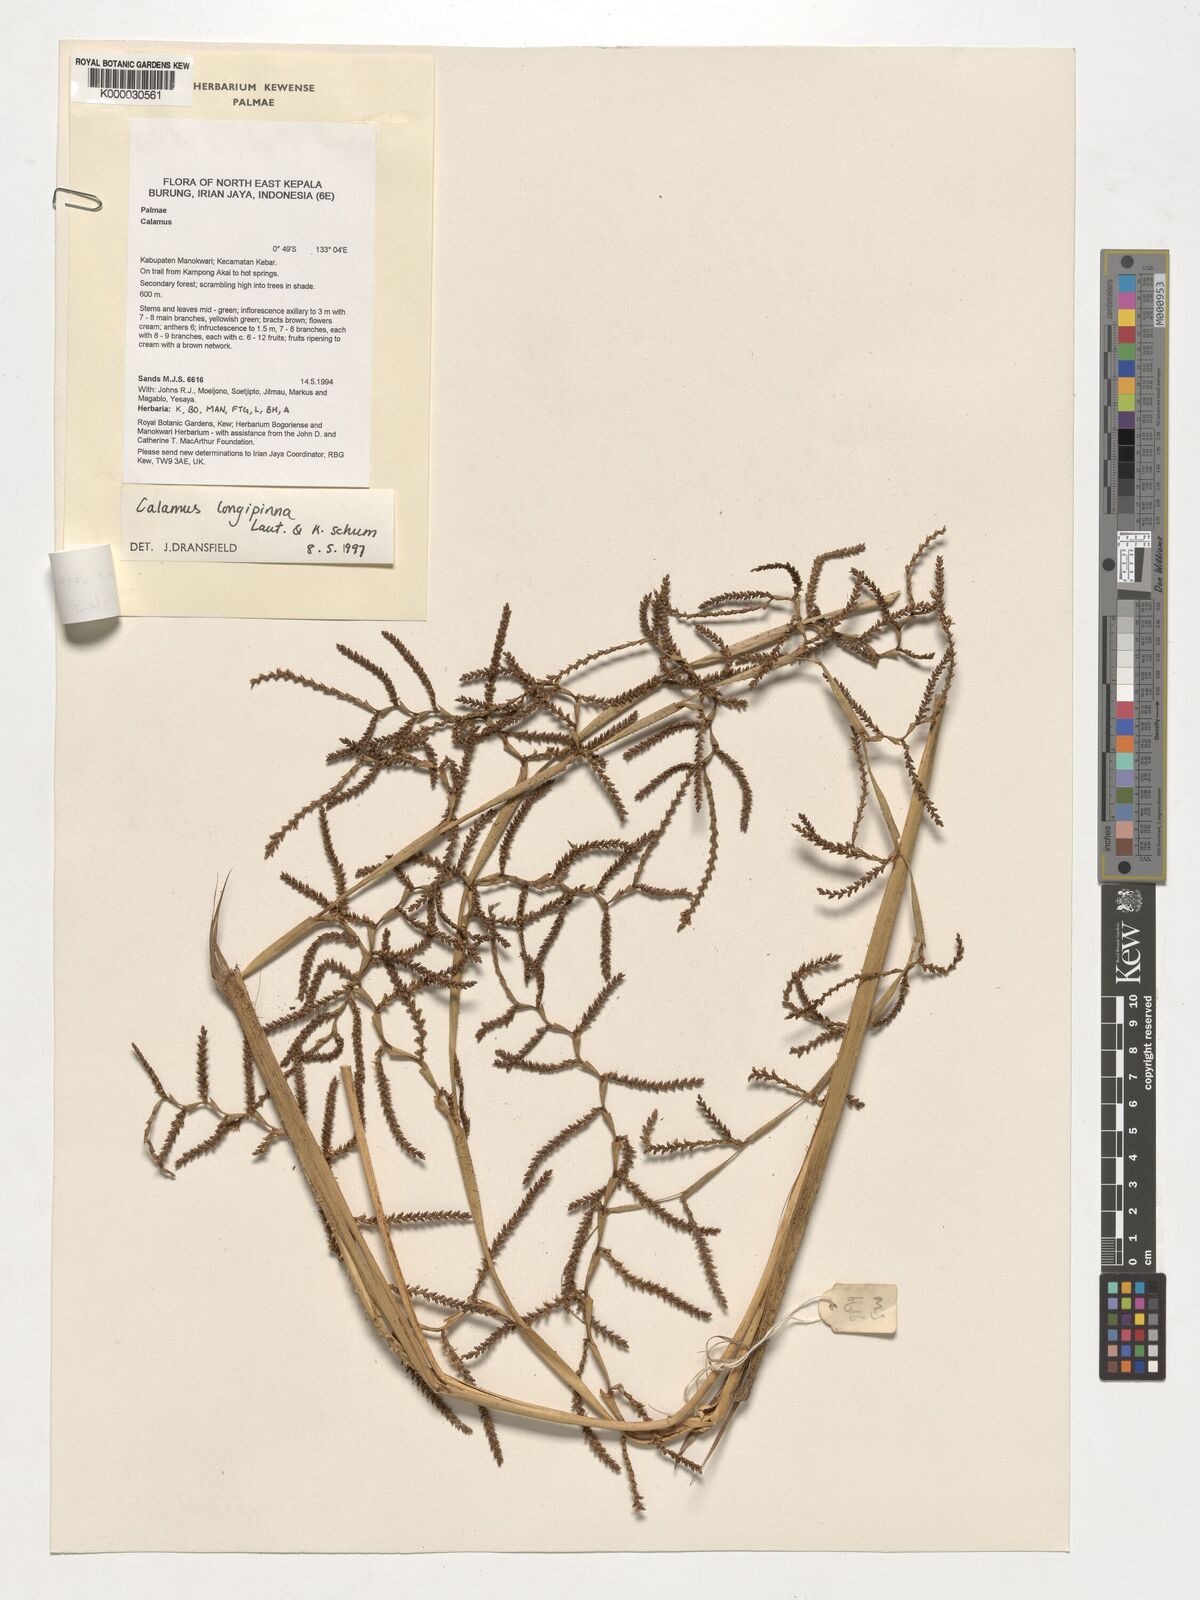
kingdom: Plantae
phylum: Tracheophyta
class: Liliopsida
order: Arecales
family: Arecaceae
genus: Calamus
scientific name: Calamus vestitus
